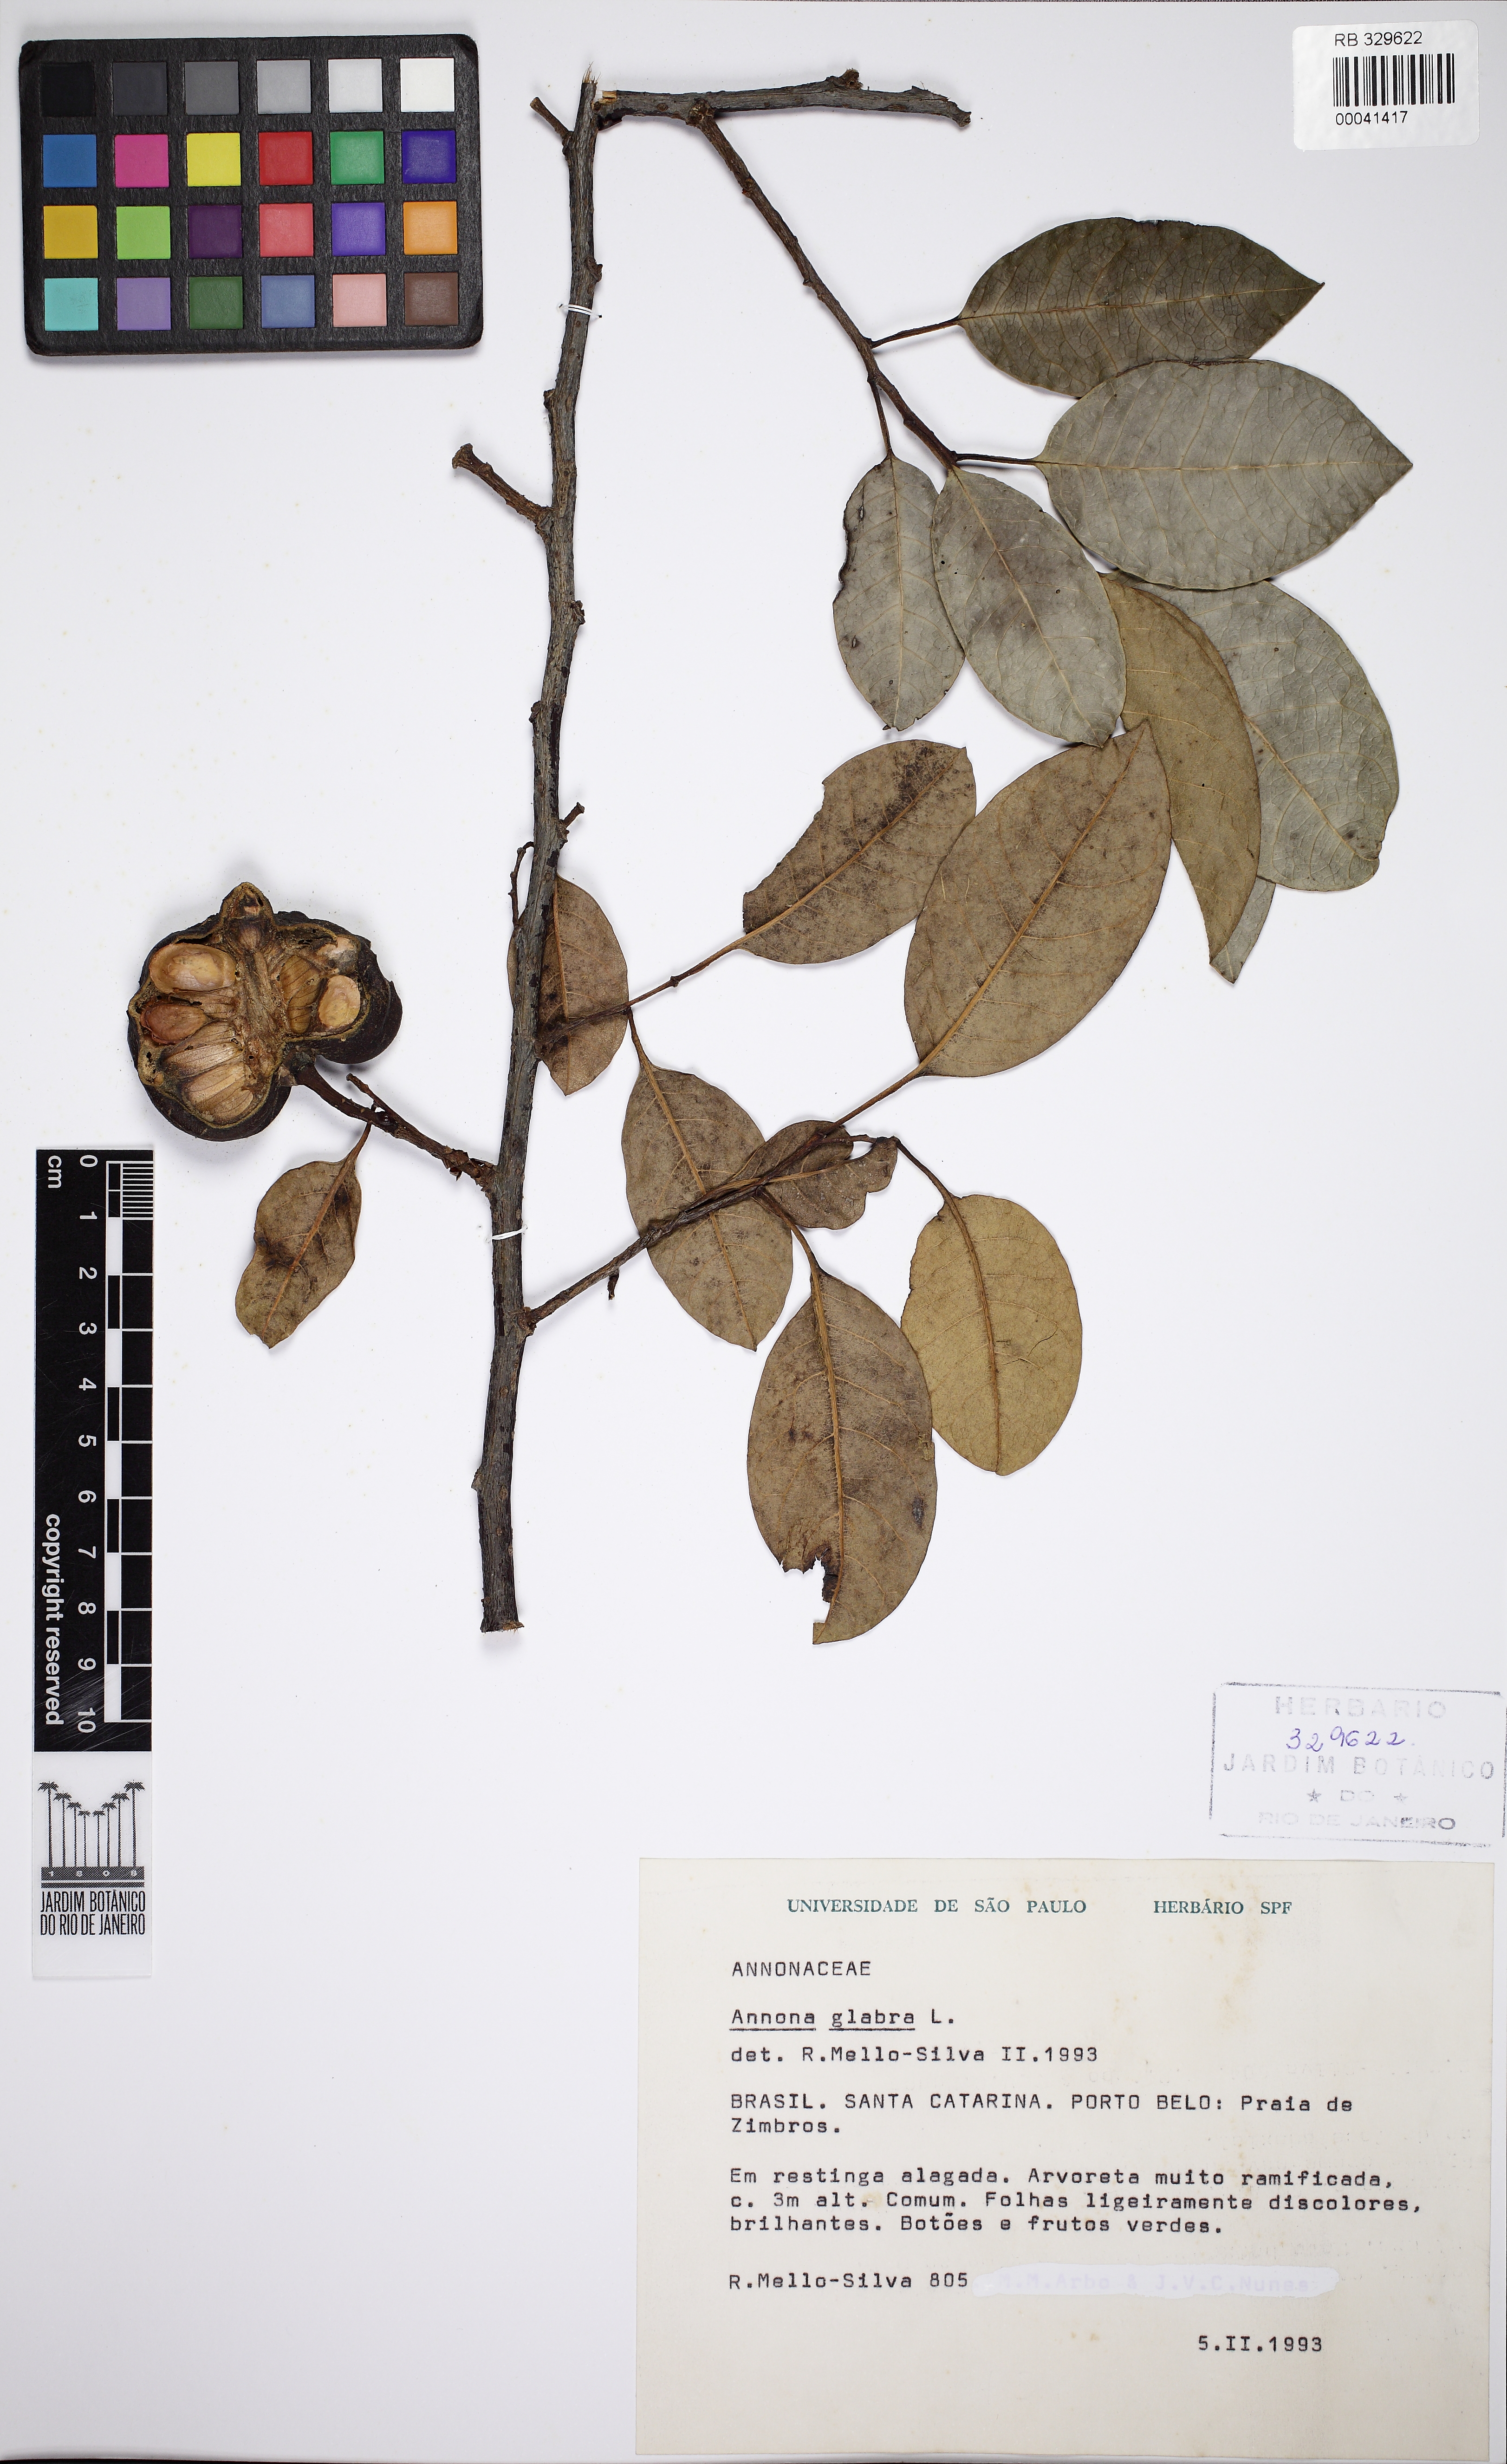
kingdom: Plantae
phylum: Tracheophyta
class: Magnoliopsida
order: Magnoliales
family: Annonaceae
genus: Annona
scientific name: Annona glabra
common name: Monkey apple
